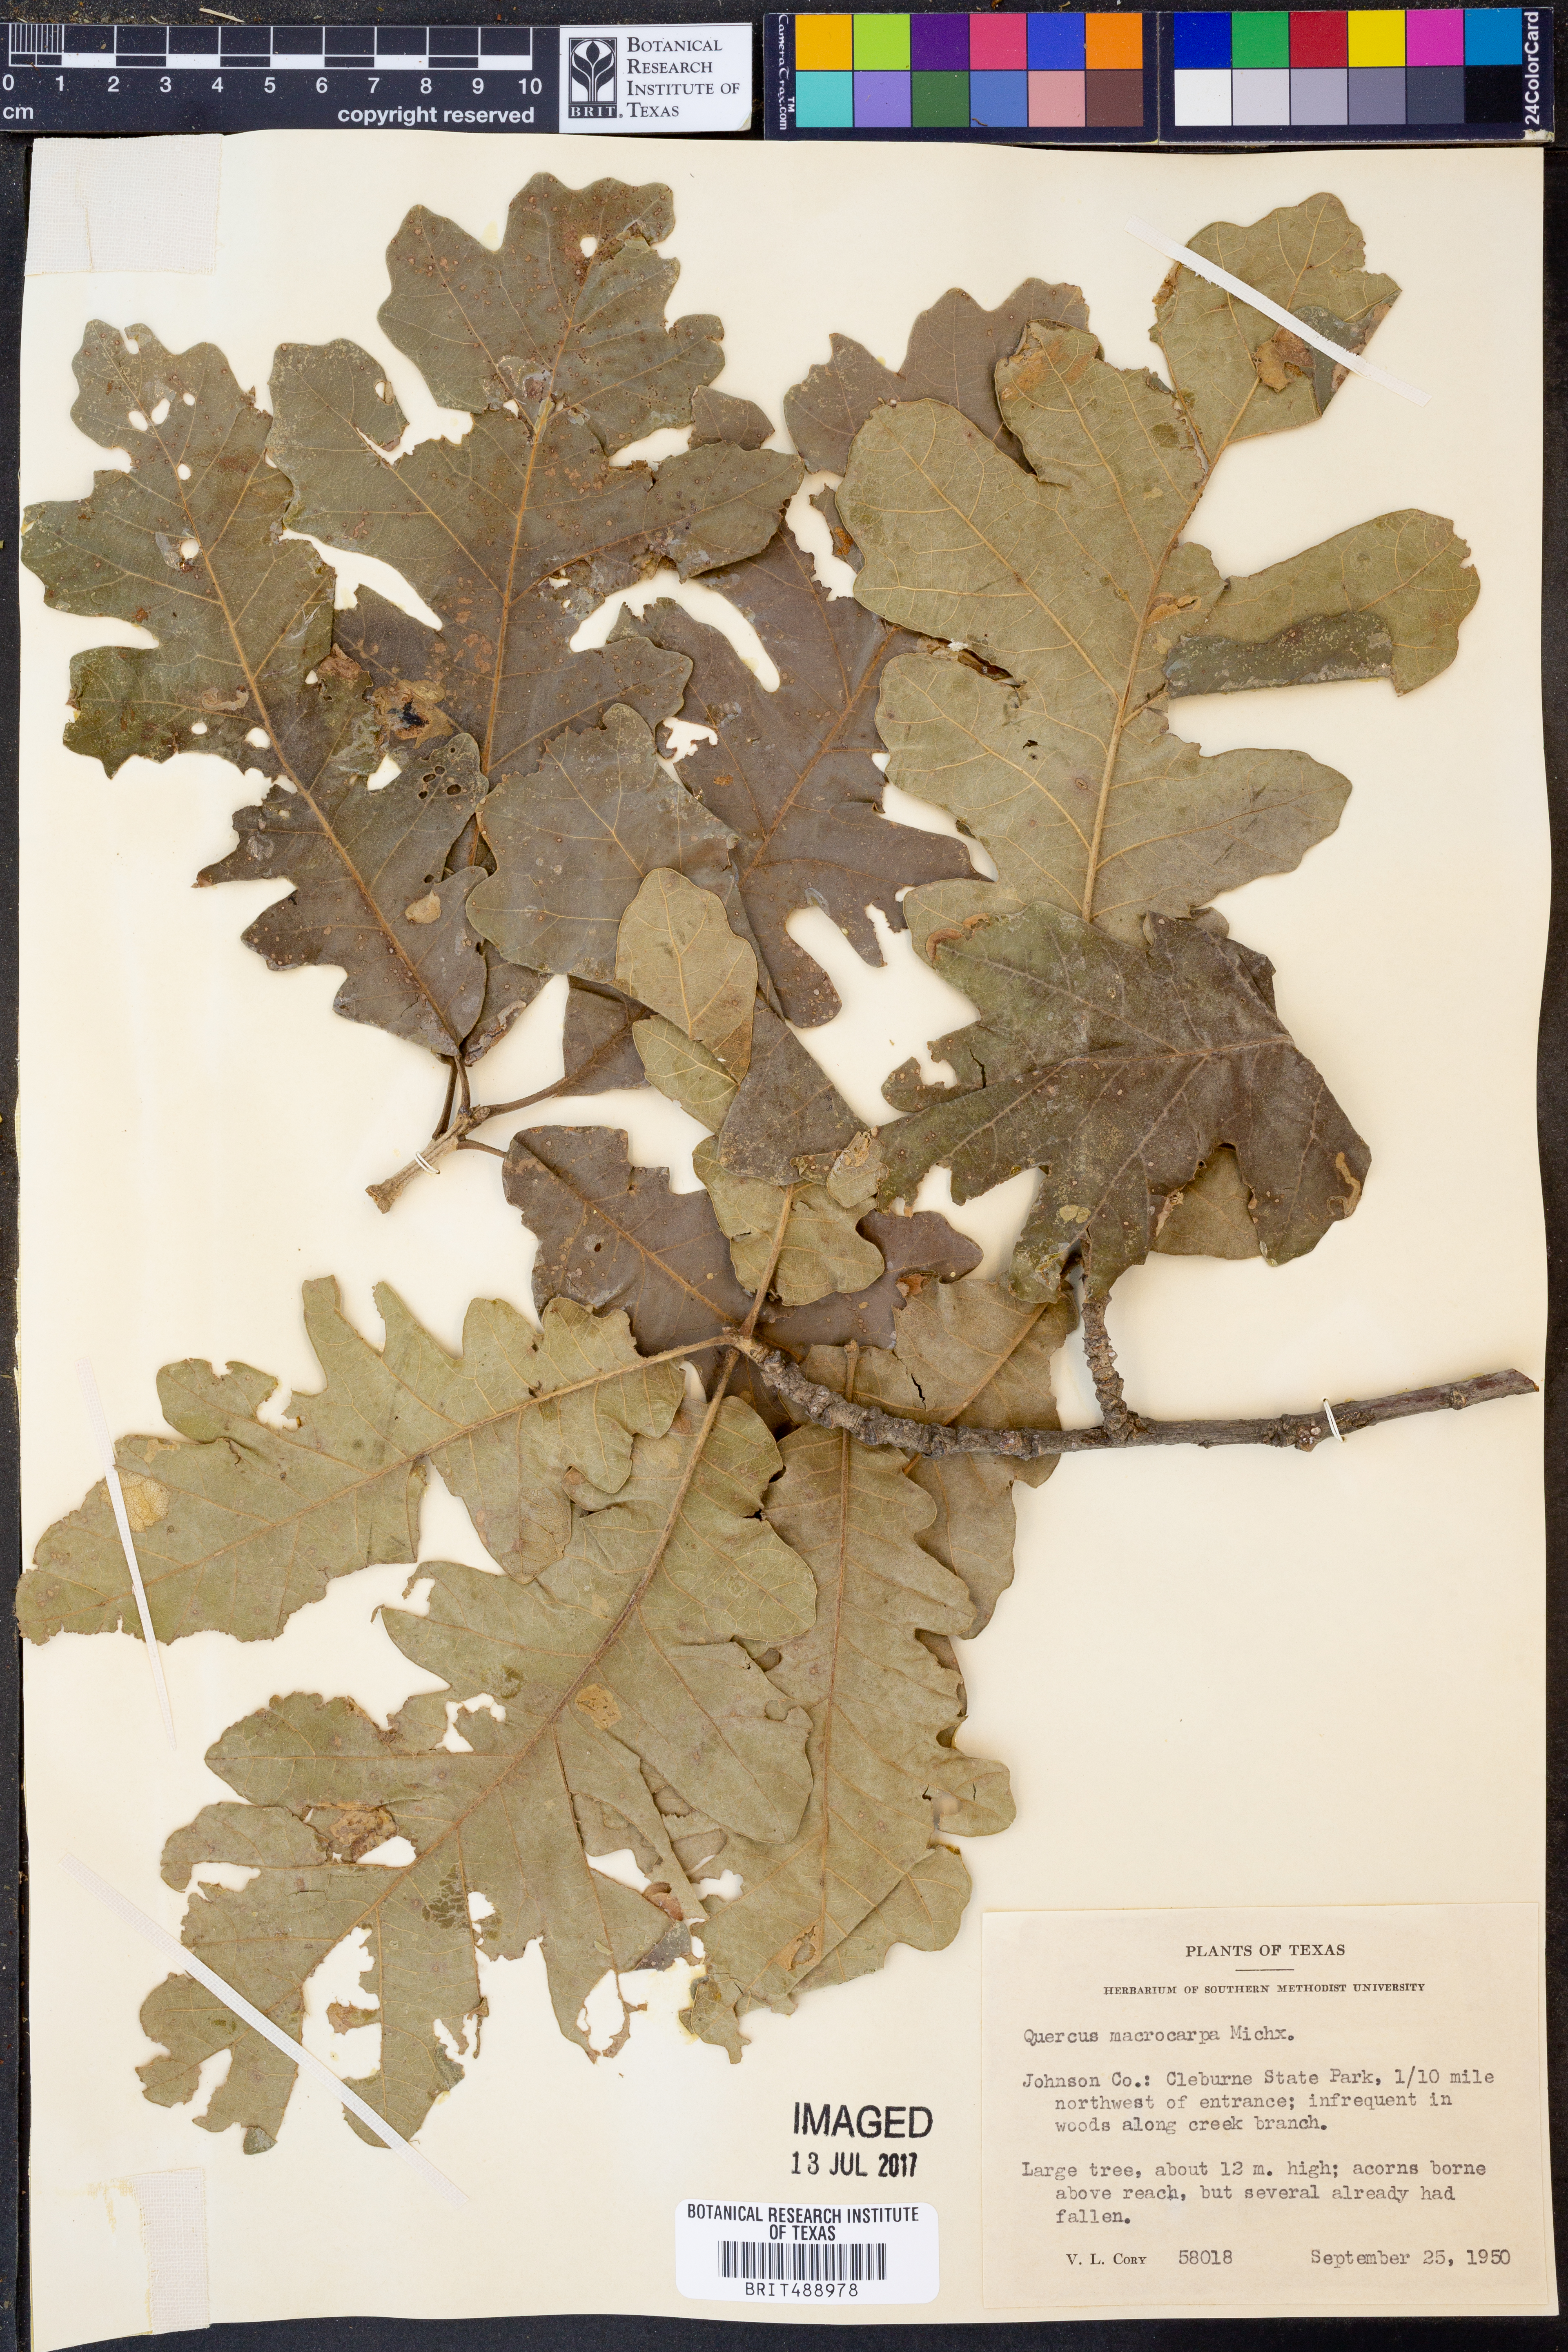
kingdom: Plantae
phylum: Tracheophyta
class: Magnoliopsida
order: Fagales
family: Fagaceae
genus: Quercus
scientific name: Quercus macrocarpa
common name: Bur oak
